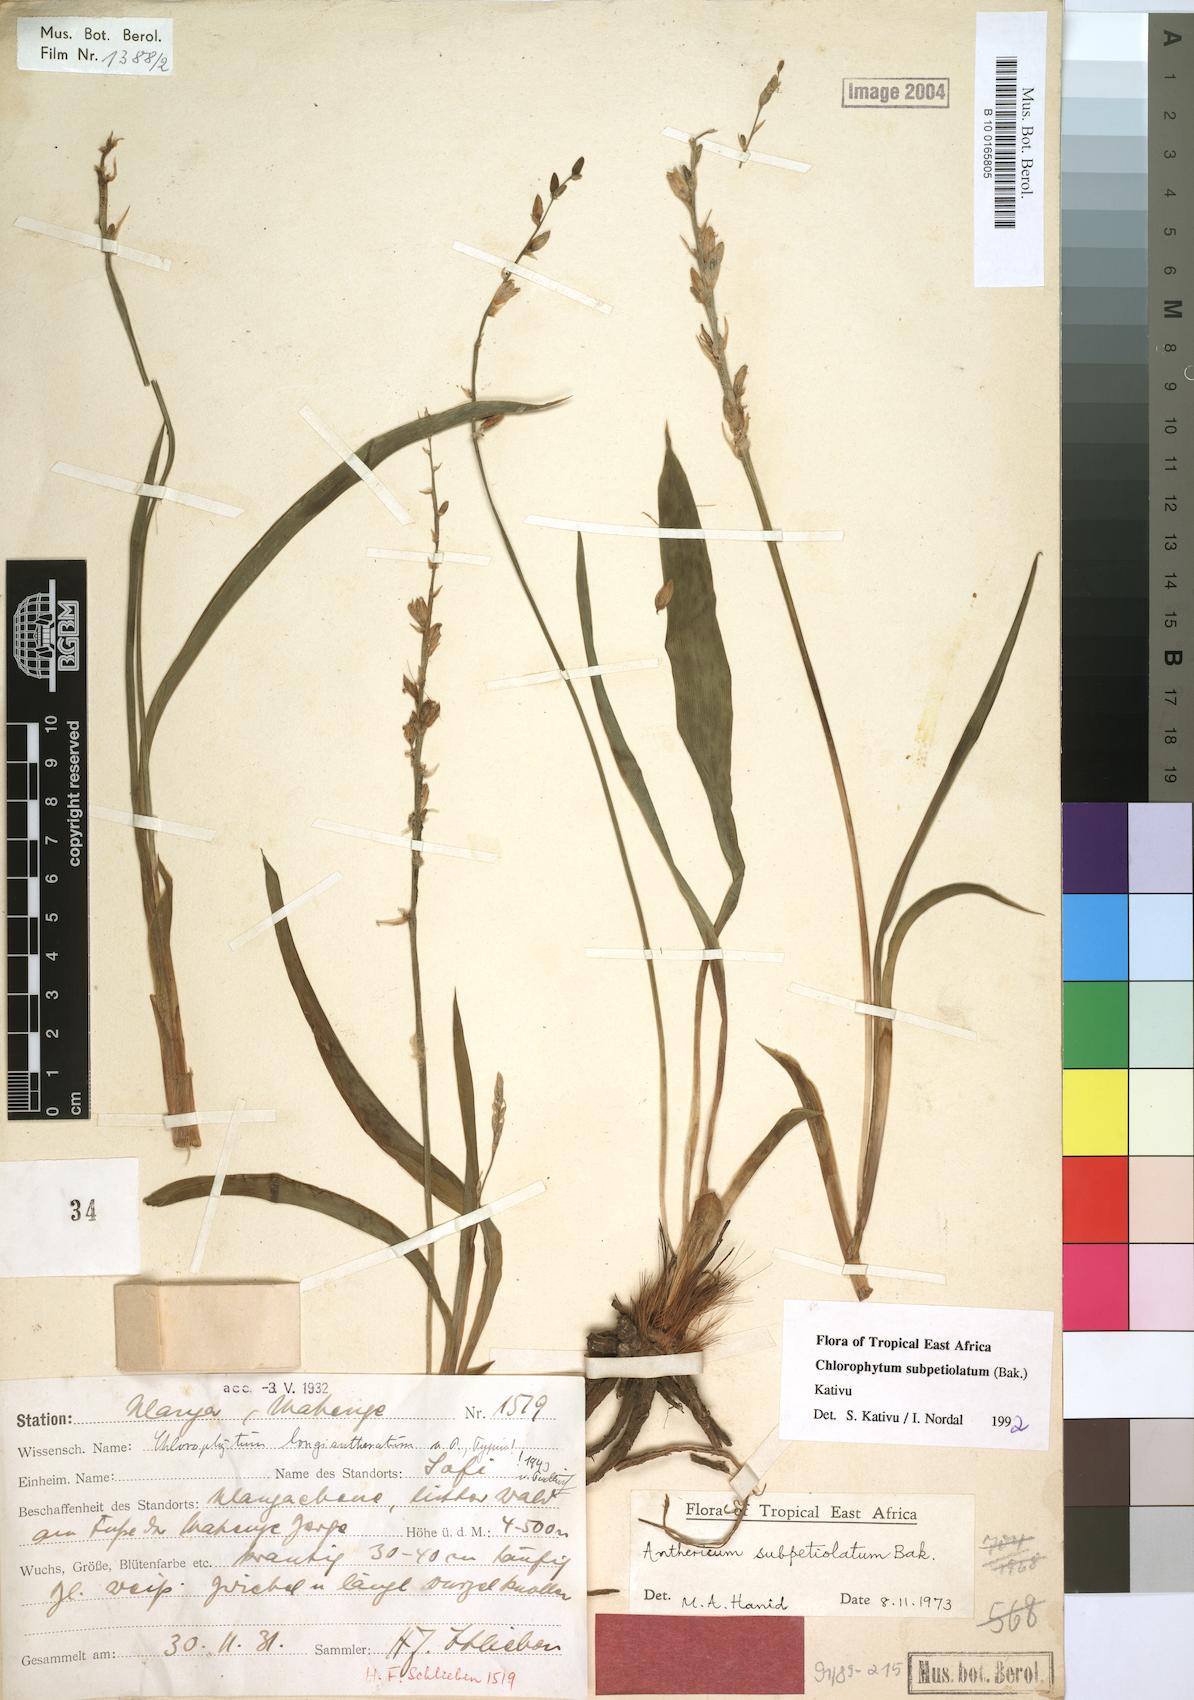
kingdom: Plantae
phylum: Tracheophyta
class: Liliopsida
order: Asparagales
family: Asparagaceae
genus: Chlorophytum
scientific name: Chlorophytum subpetiolatum
